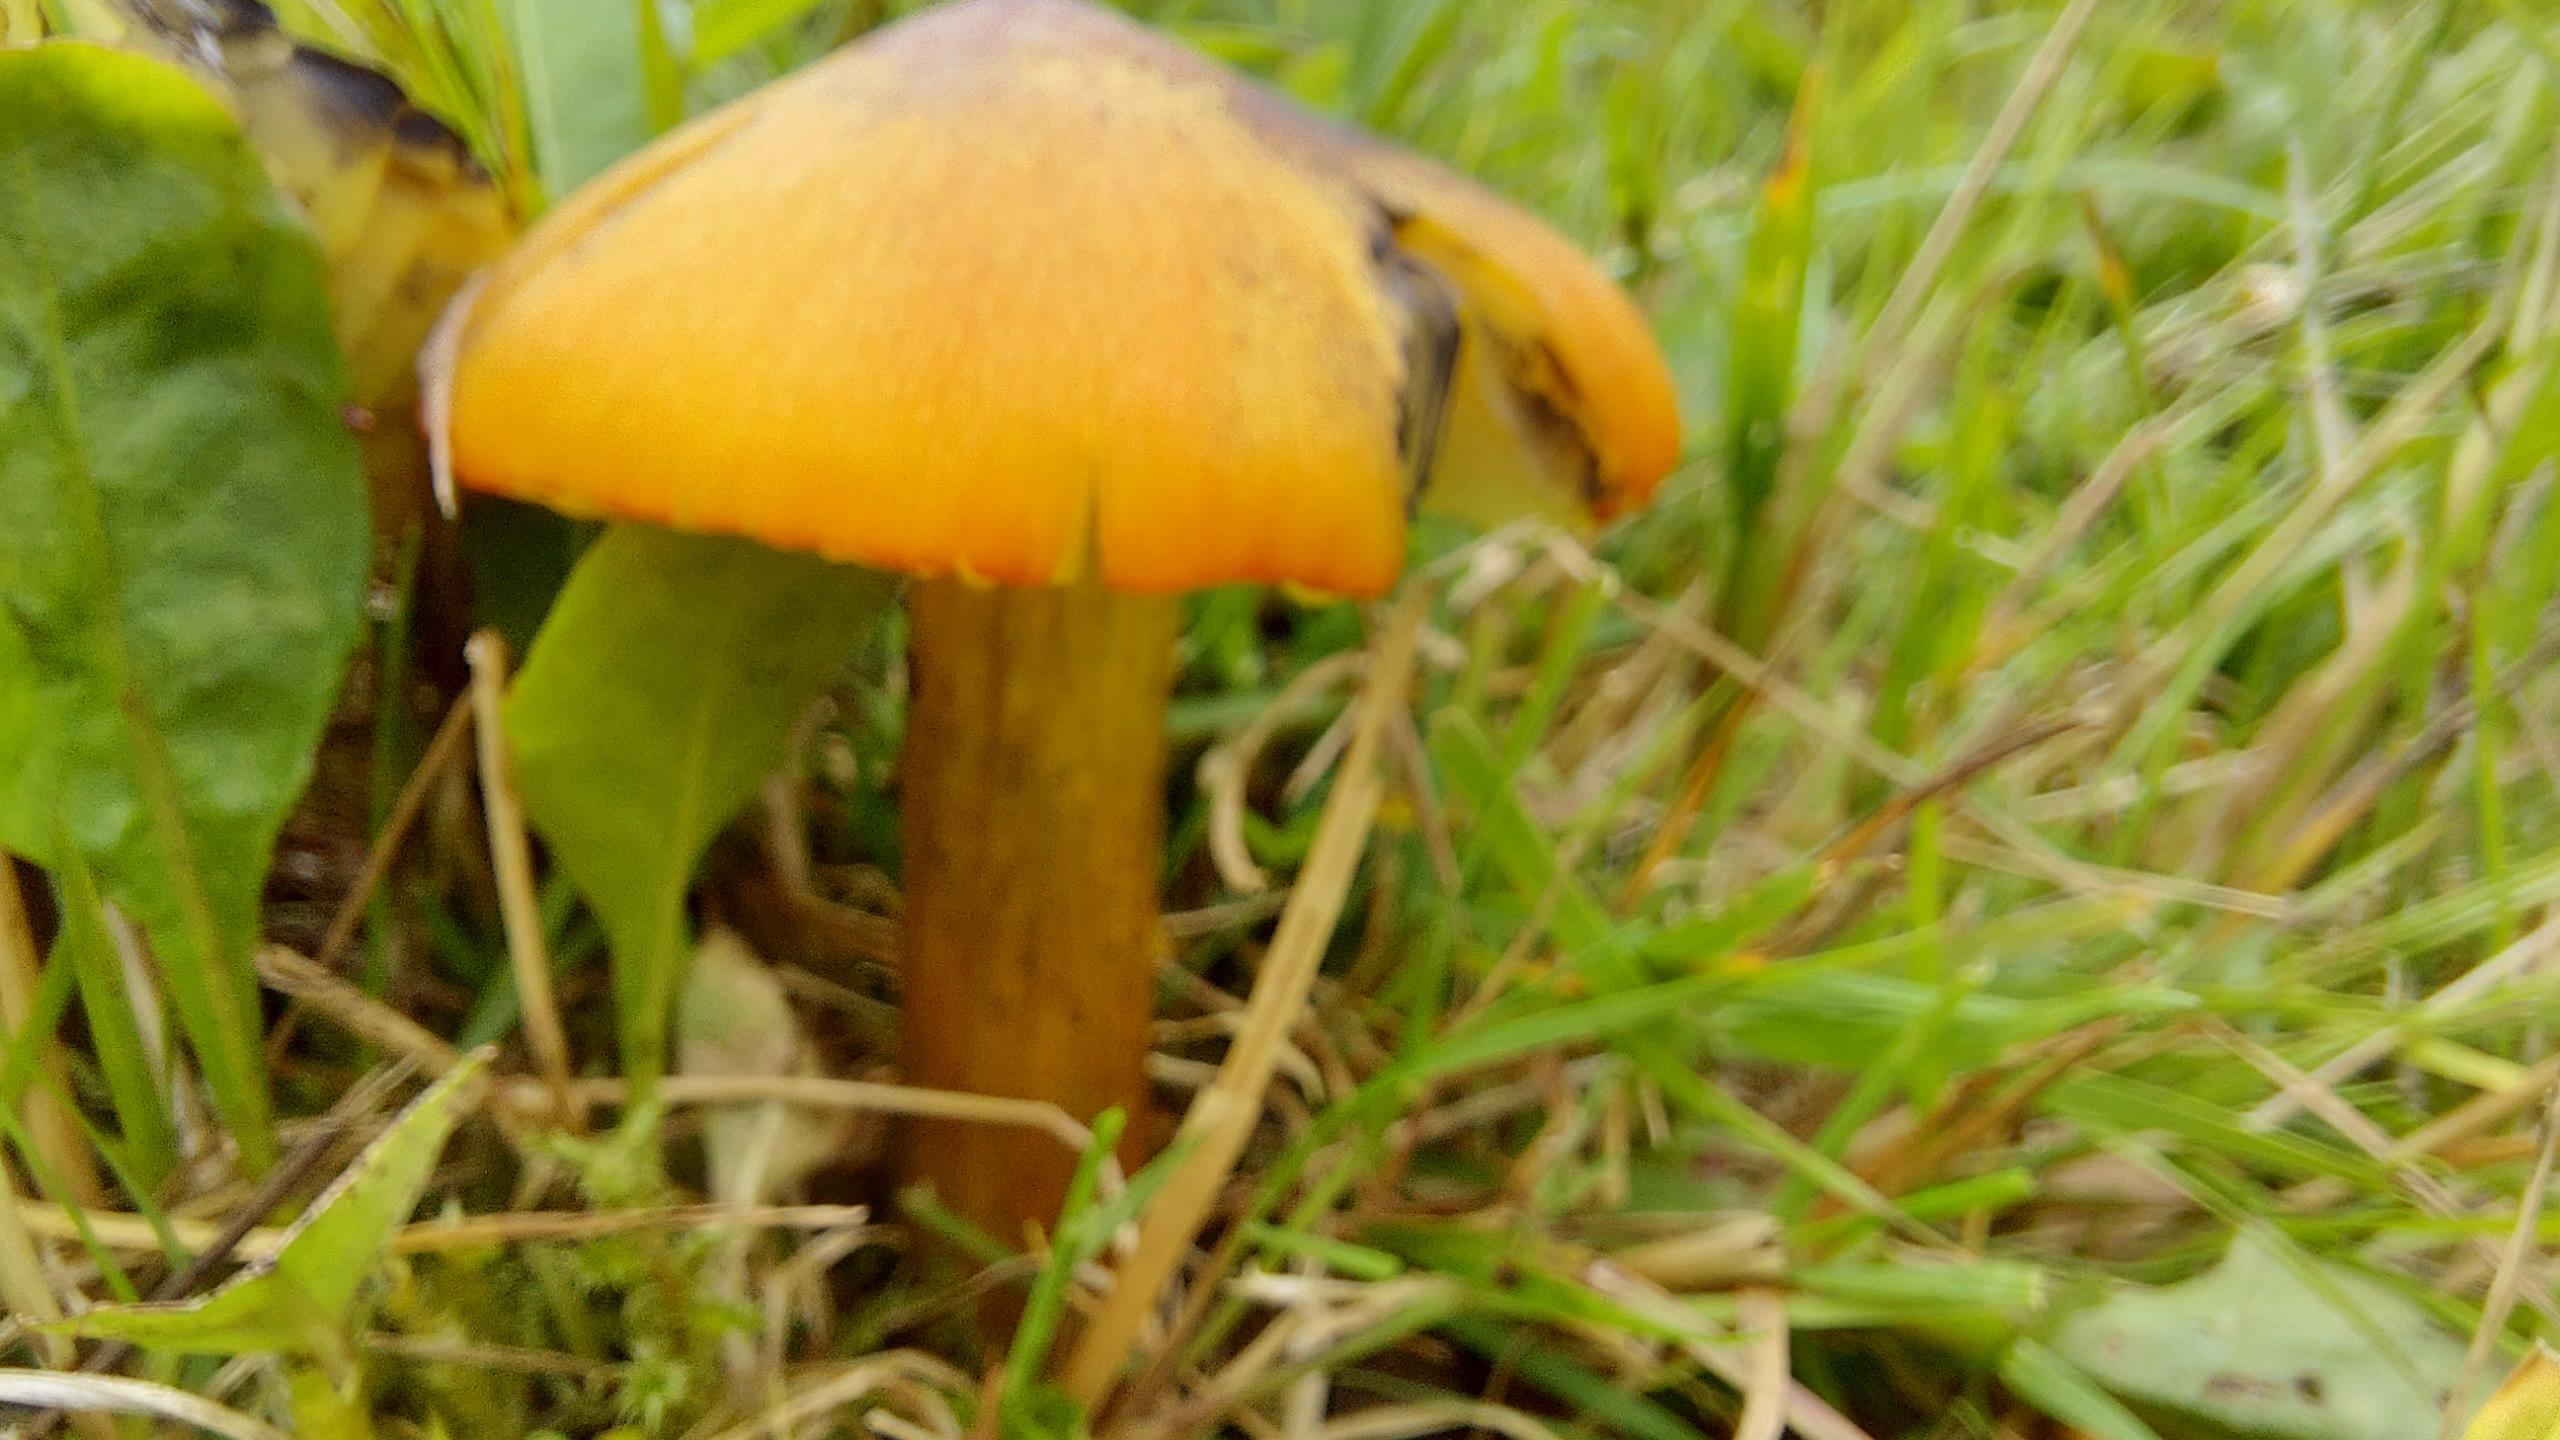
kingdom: Fungi
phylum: Basidiomycota
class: Agaricomycetes
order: Agaricales
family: Hygrophoraceae
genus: Hygrocybe
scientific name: Hygrocybe conica
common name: Kegle-vokshat
